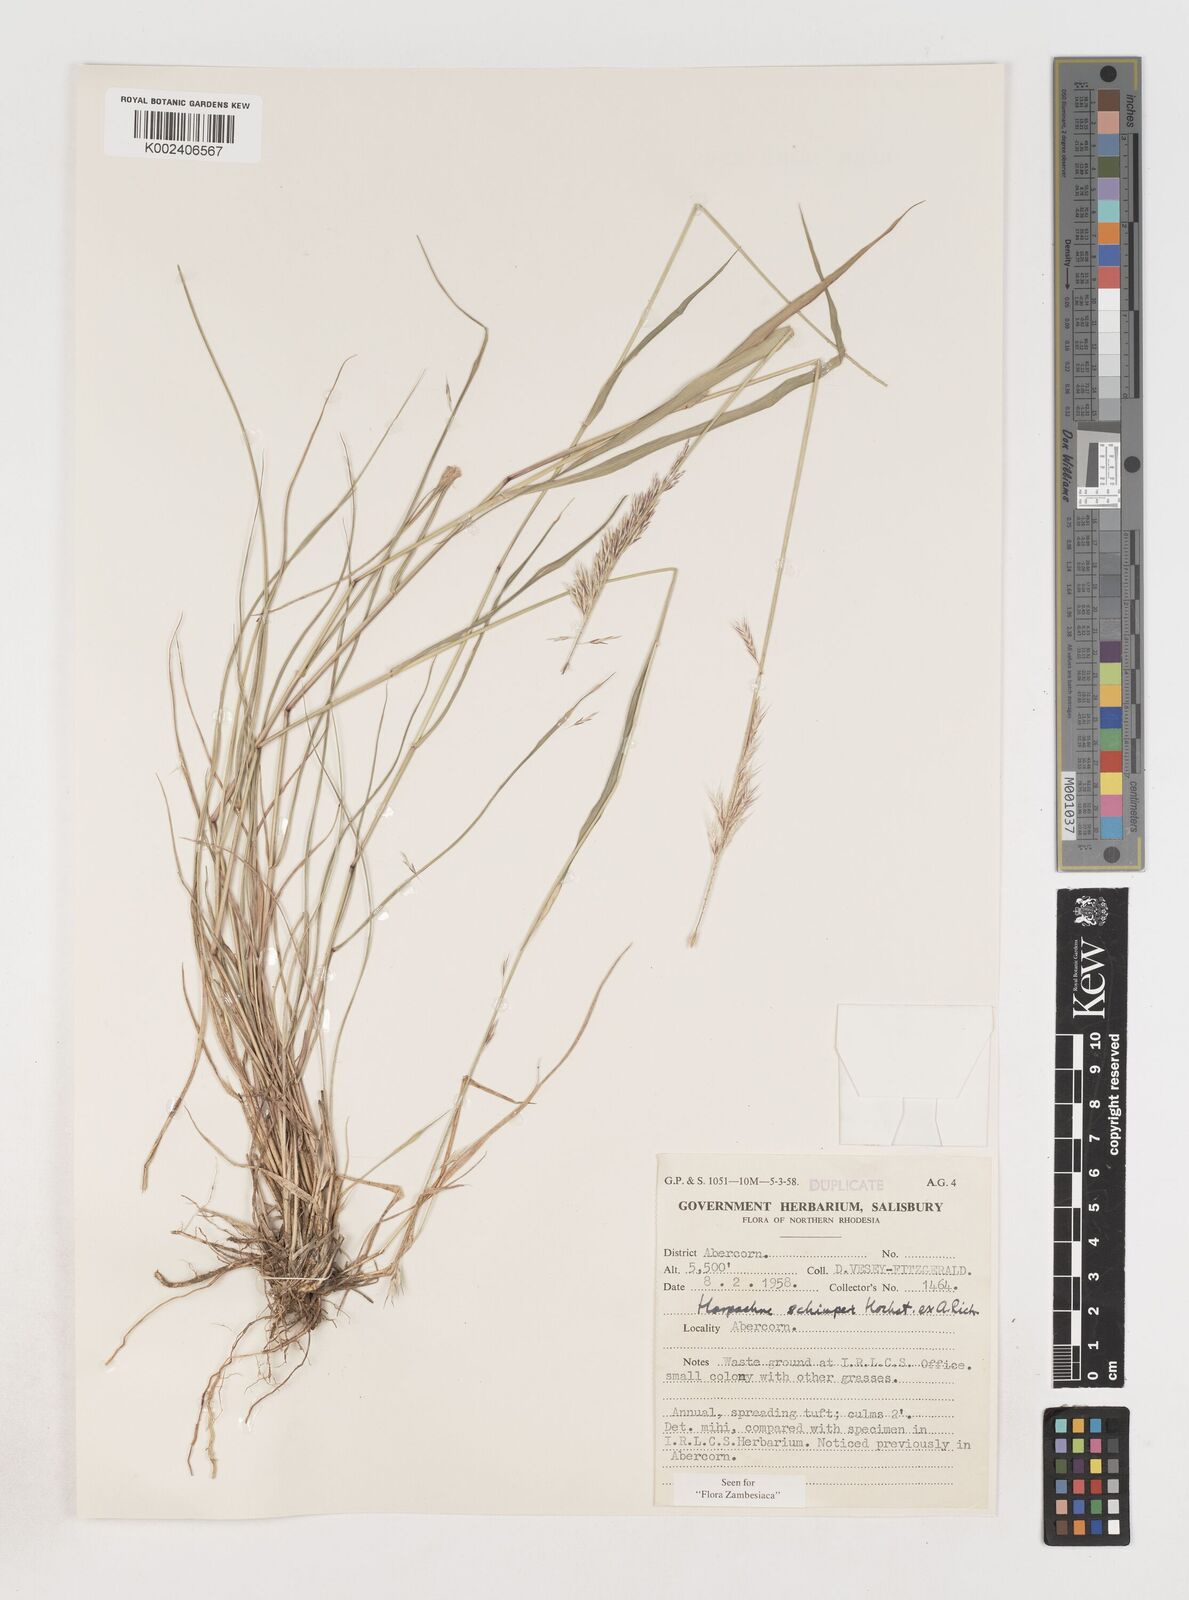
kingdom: Plantae
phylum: Tracheophyta
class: Liliopsida
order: Poales
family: Poaceae
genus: Harpachne
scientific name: Harpachne schimperi
